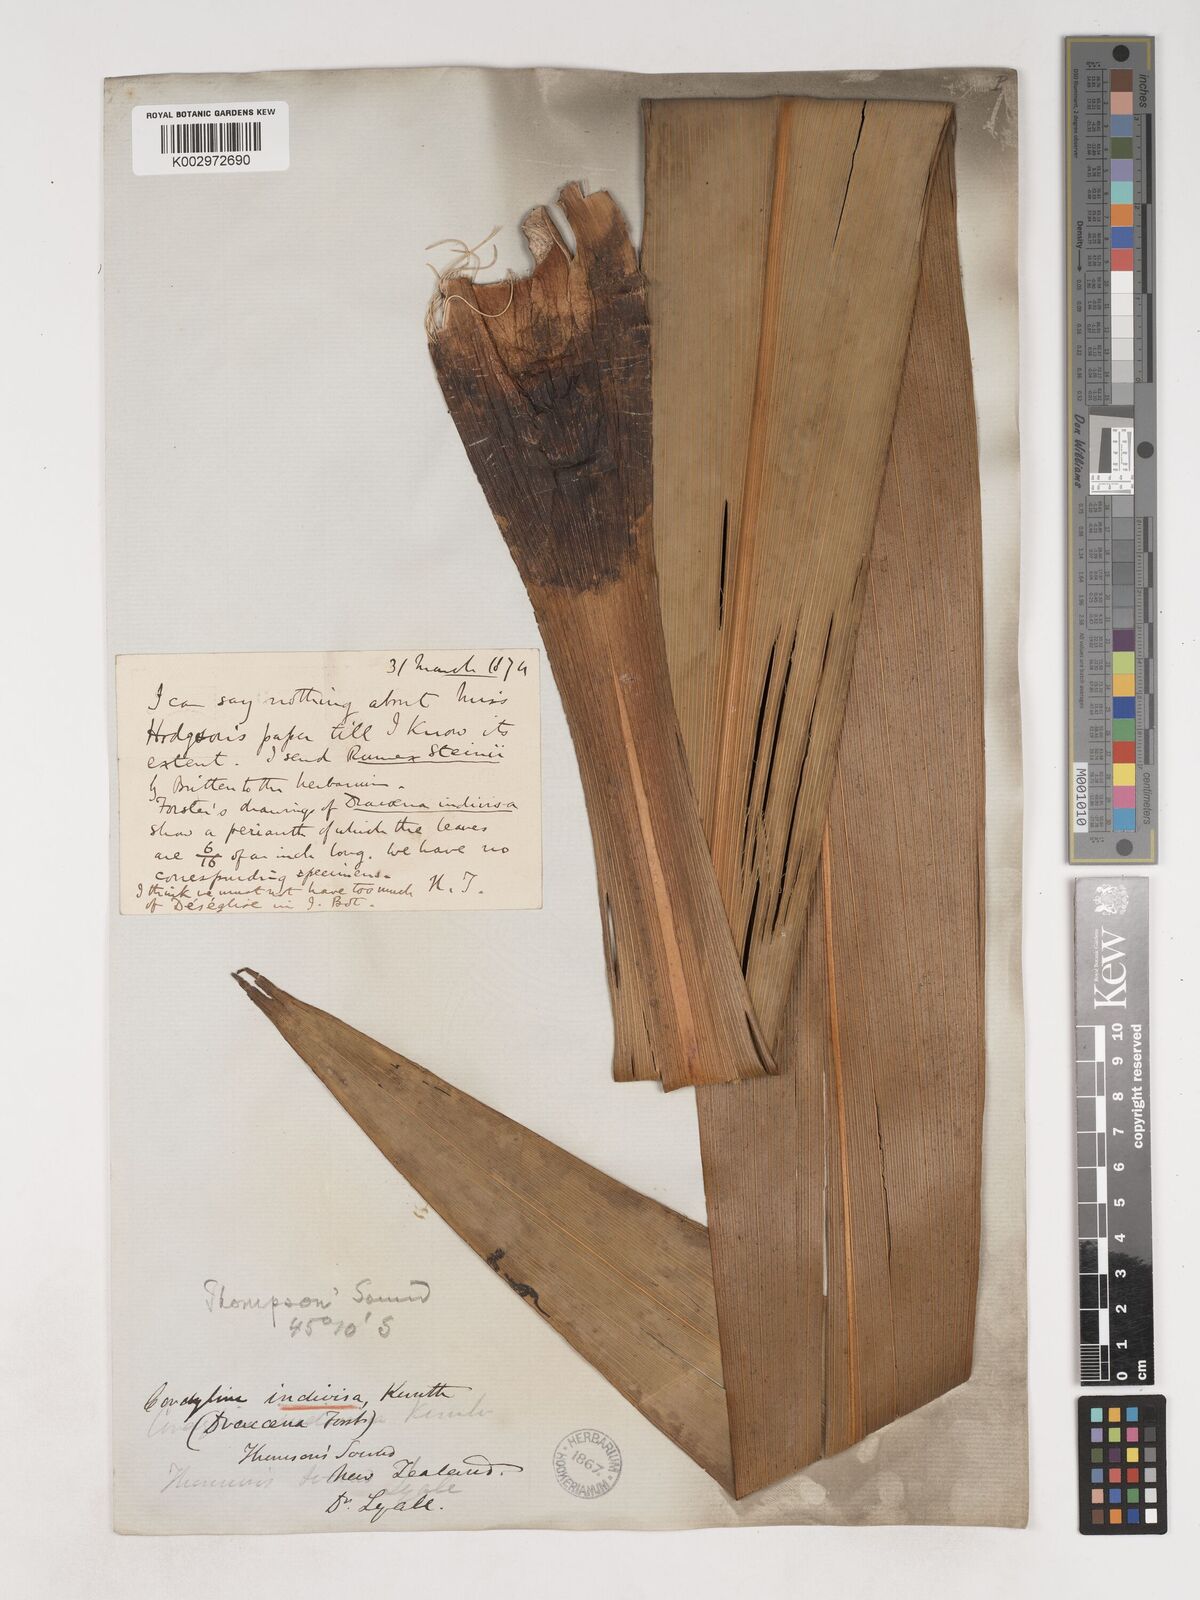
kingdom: Plantae
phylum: Tracheophyta
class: Liliopsida
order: Asparagales
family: Asparagaceae
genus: Cordyline
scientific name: Cordyline
